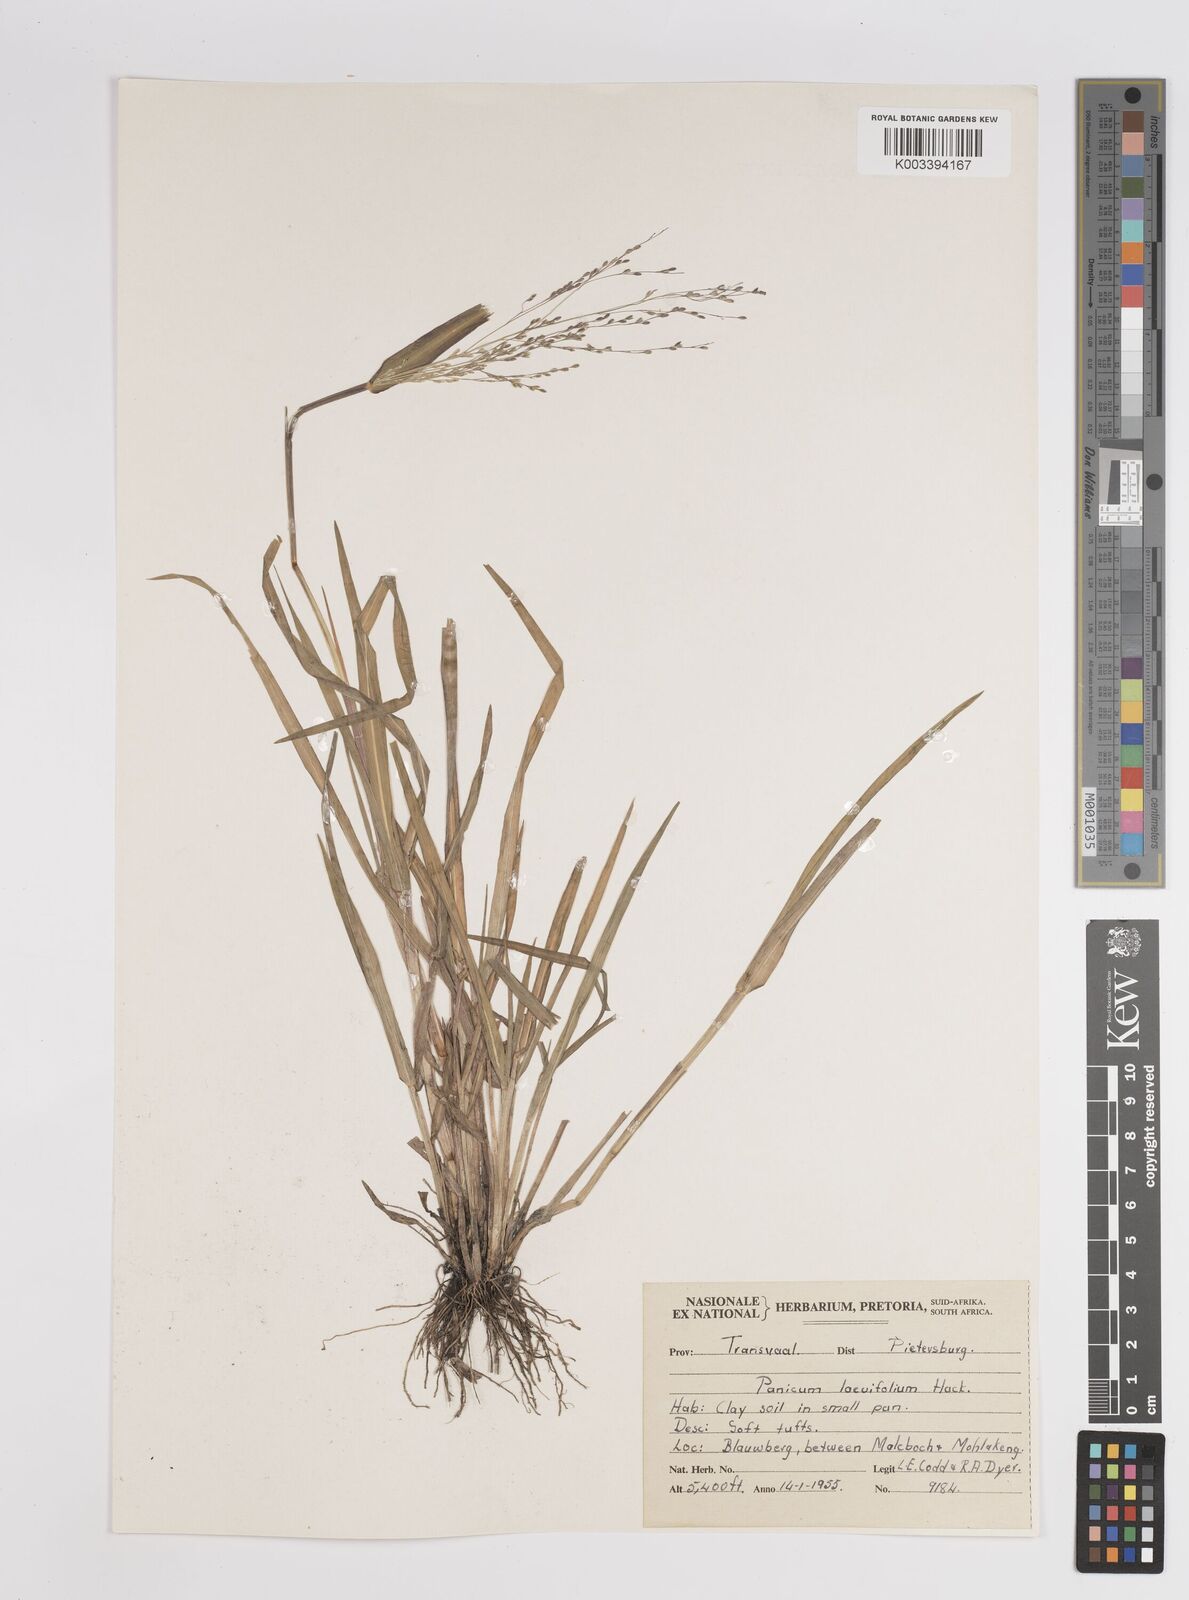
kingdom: Plantae
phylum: Tracheophyta
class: Liliopsida
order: Poales
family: Poaceae
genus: Panicum
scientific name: Panicum schinzii
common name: Sweet grass
